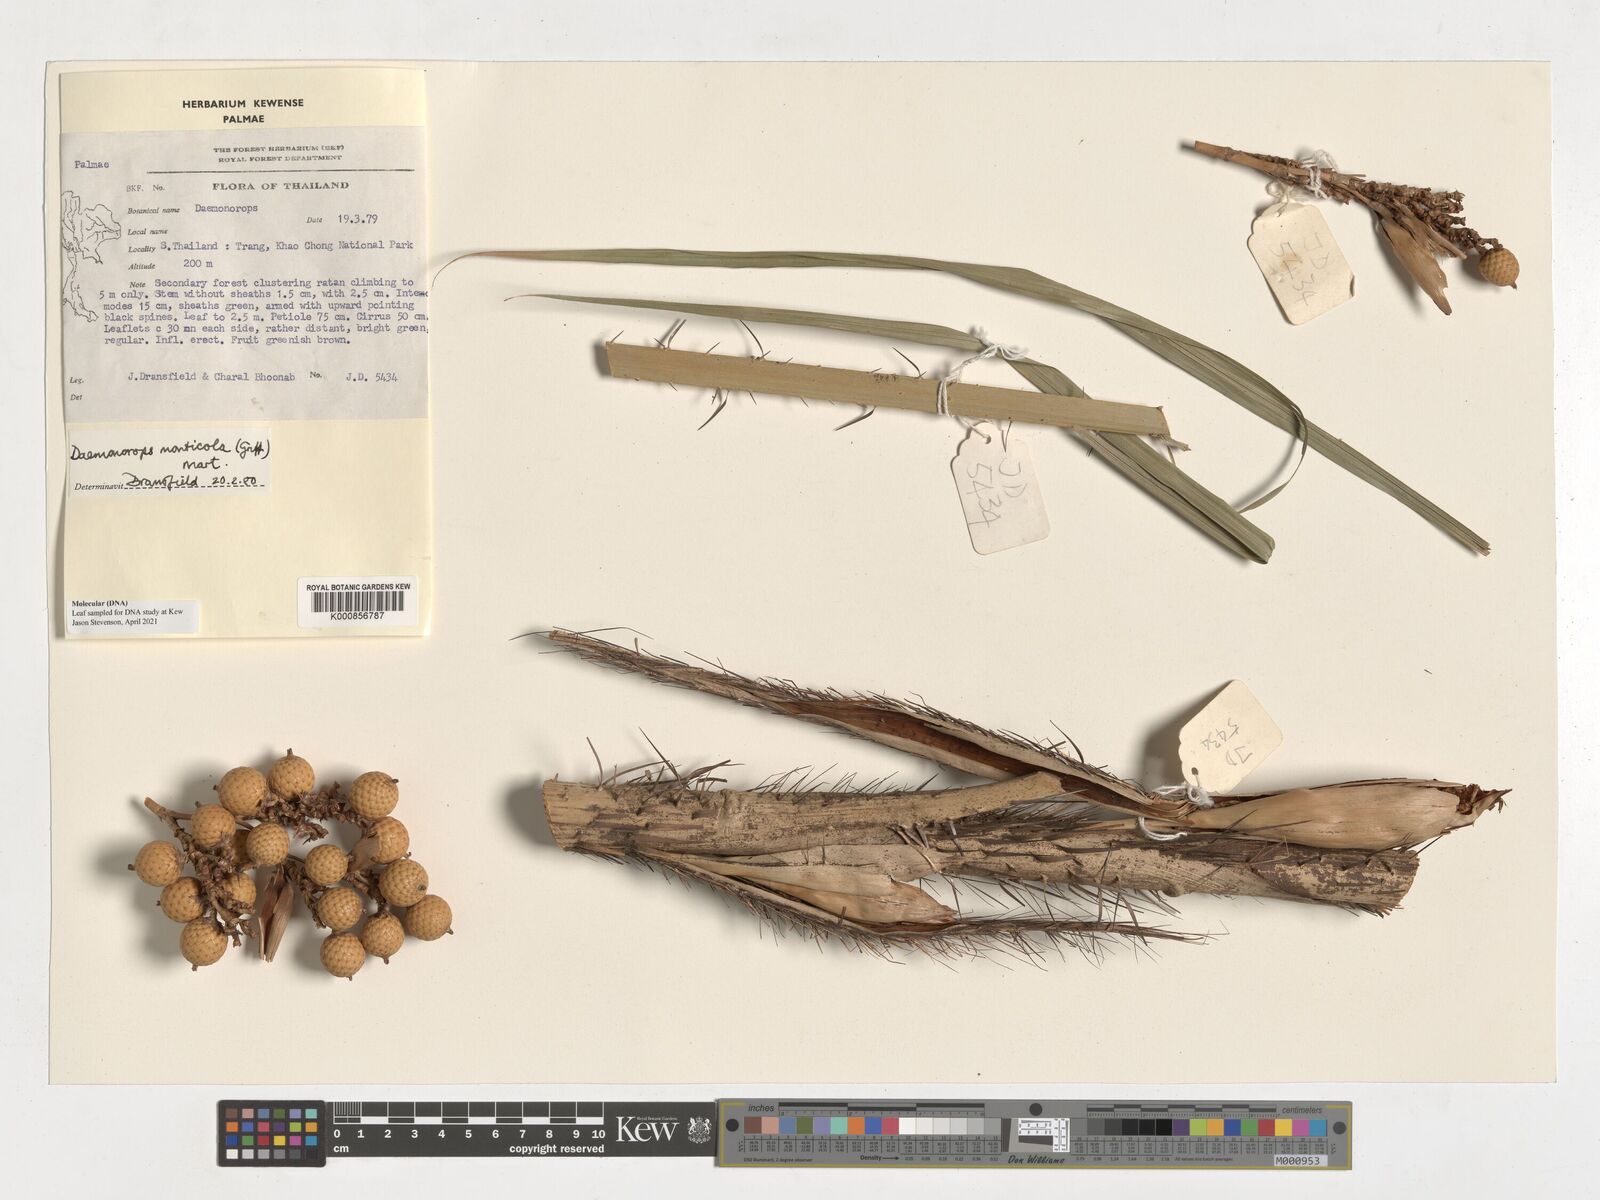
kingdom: Plantae
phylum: Tracheophyta
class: Liliopsida
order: Arecales
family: Arecaceae
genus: Calamus
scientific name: Calamus melanochaetes
